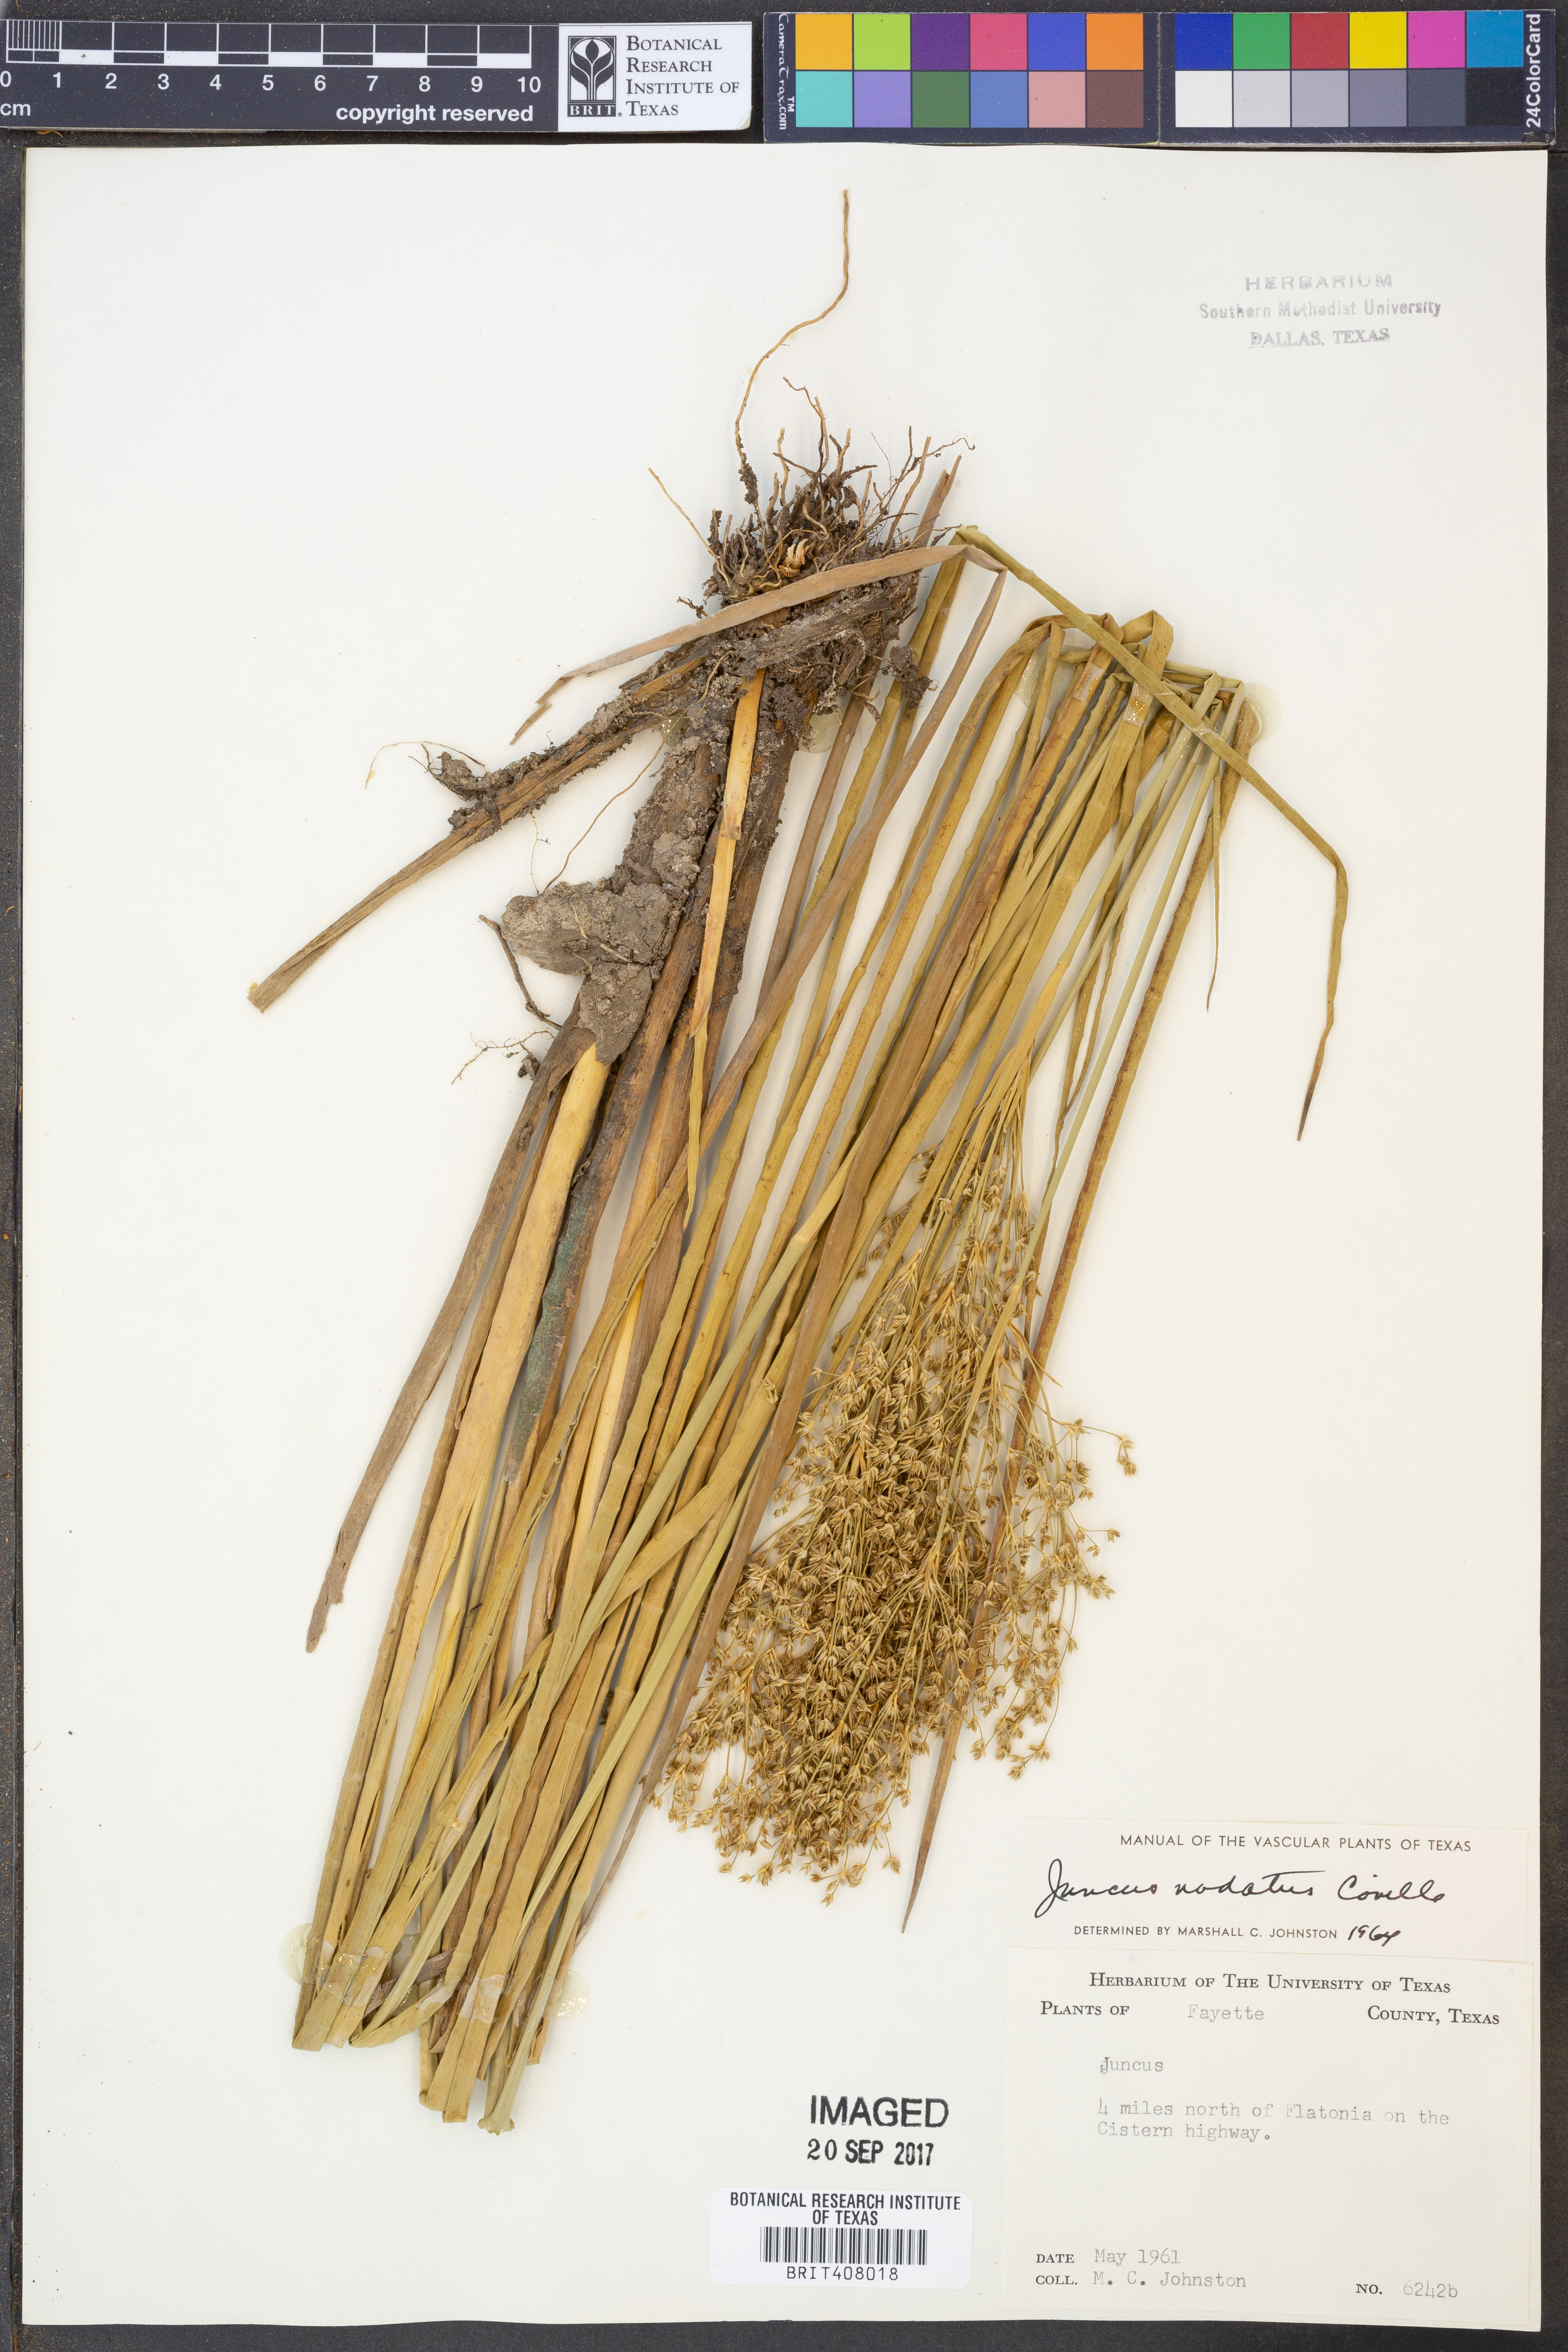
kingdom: Plantae
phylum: Tracheophyta
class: Liliopsida
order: Poales
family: Juncaceae
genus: Juncus
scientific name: Juncus nodatus
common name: Stout rush
